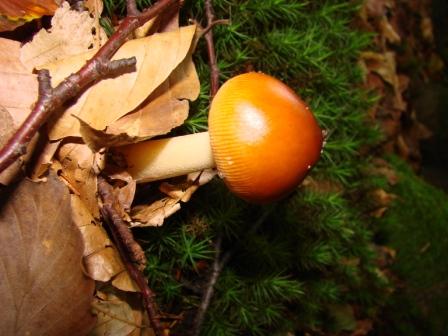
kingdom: Fungi
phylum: Basidiomycota
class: Agaricomycetes
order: Agaricales
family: Amanitaceae
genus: Amanita
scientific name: Amanita fulva
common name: brun kam-fluesvamp
